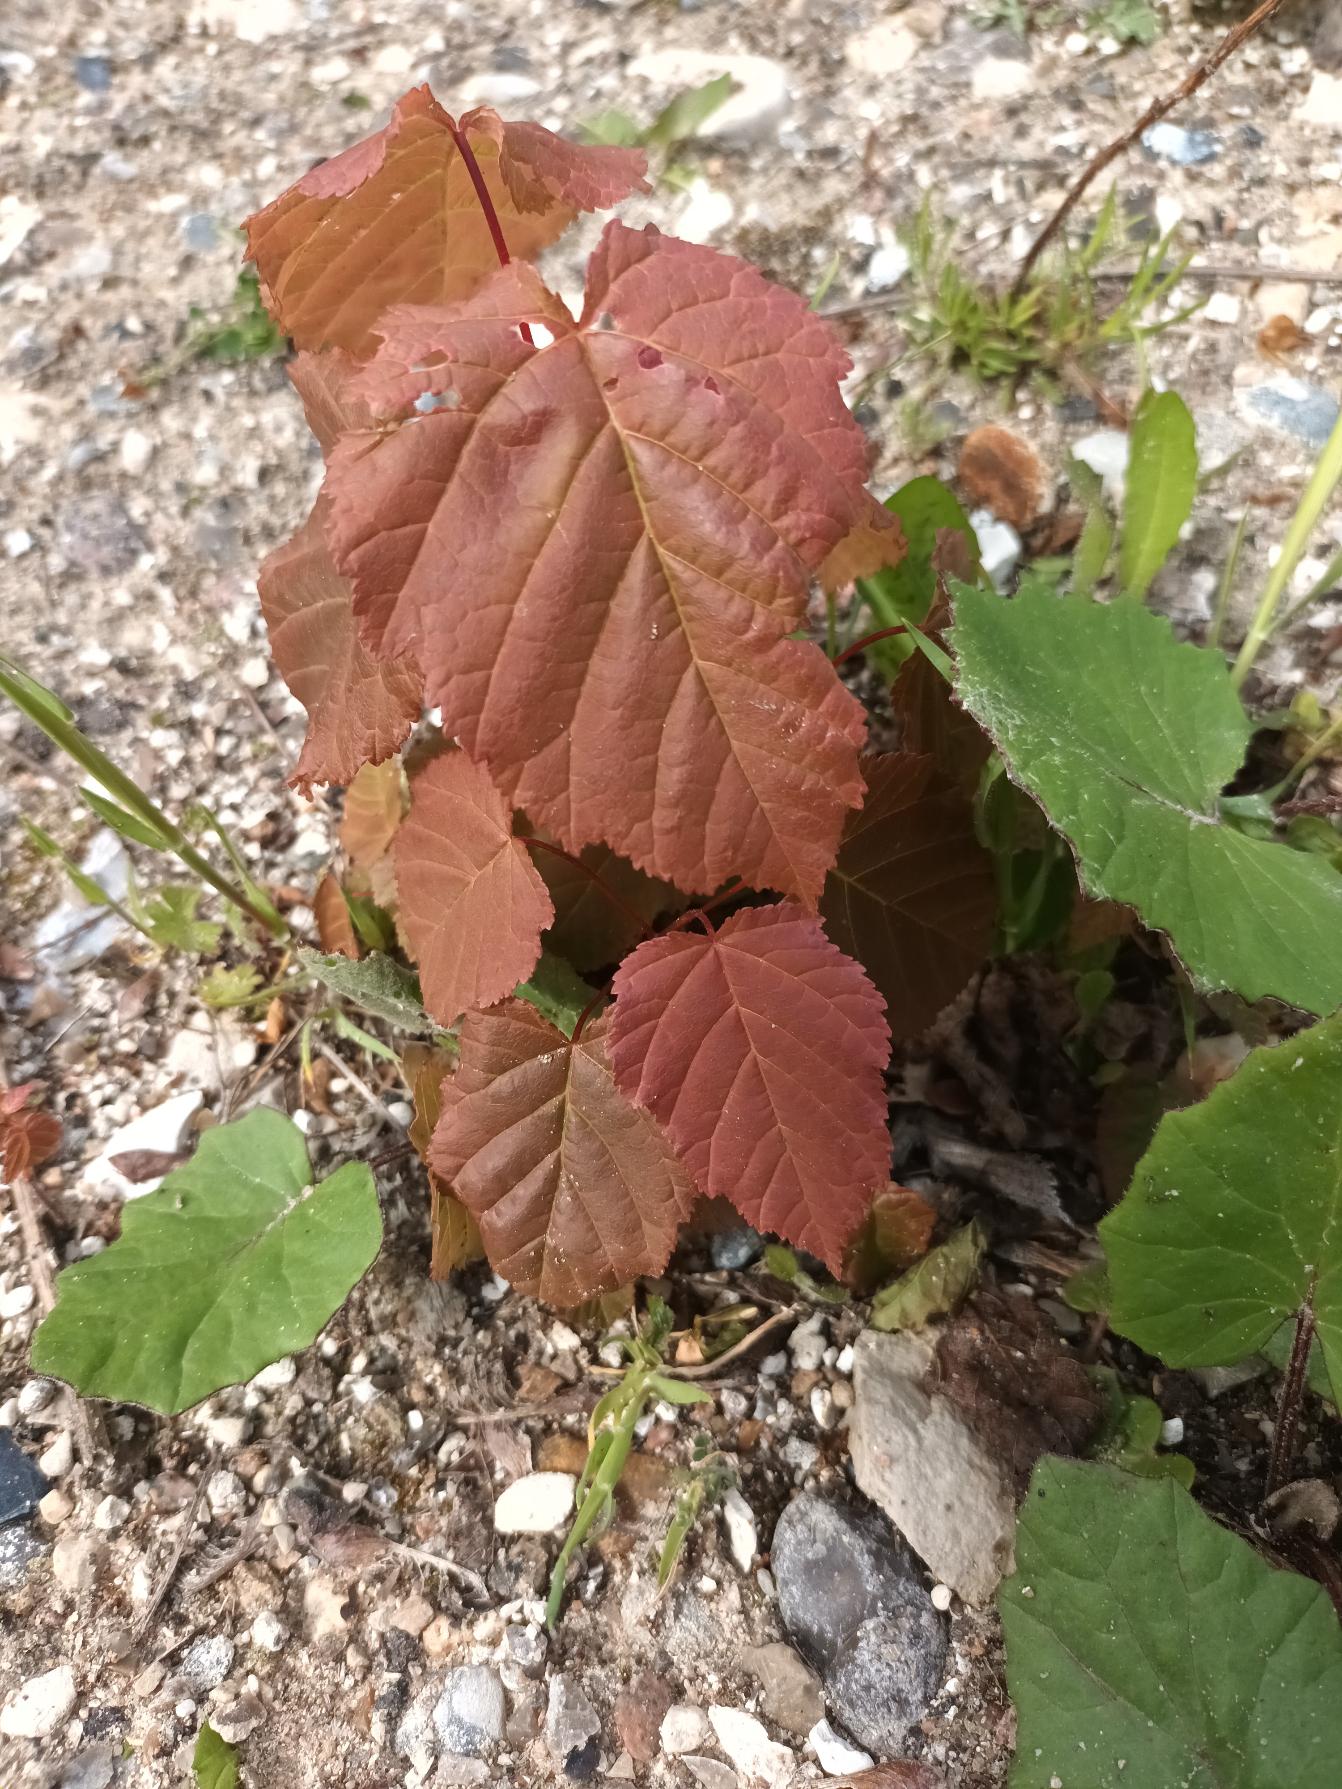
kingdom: Plantae
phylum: Tracheophyta
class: Magnoliopsida
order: Sapindales
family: Sapindaceae
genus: Acer
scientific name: Acer tataricum
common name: Russisk løn
